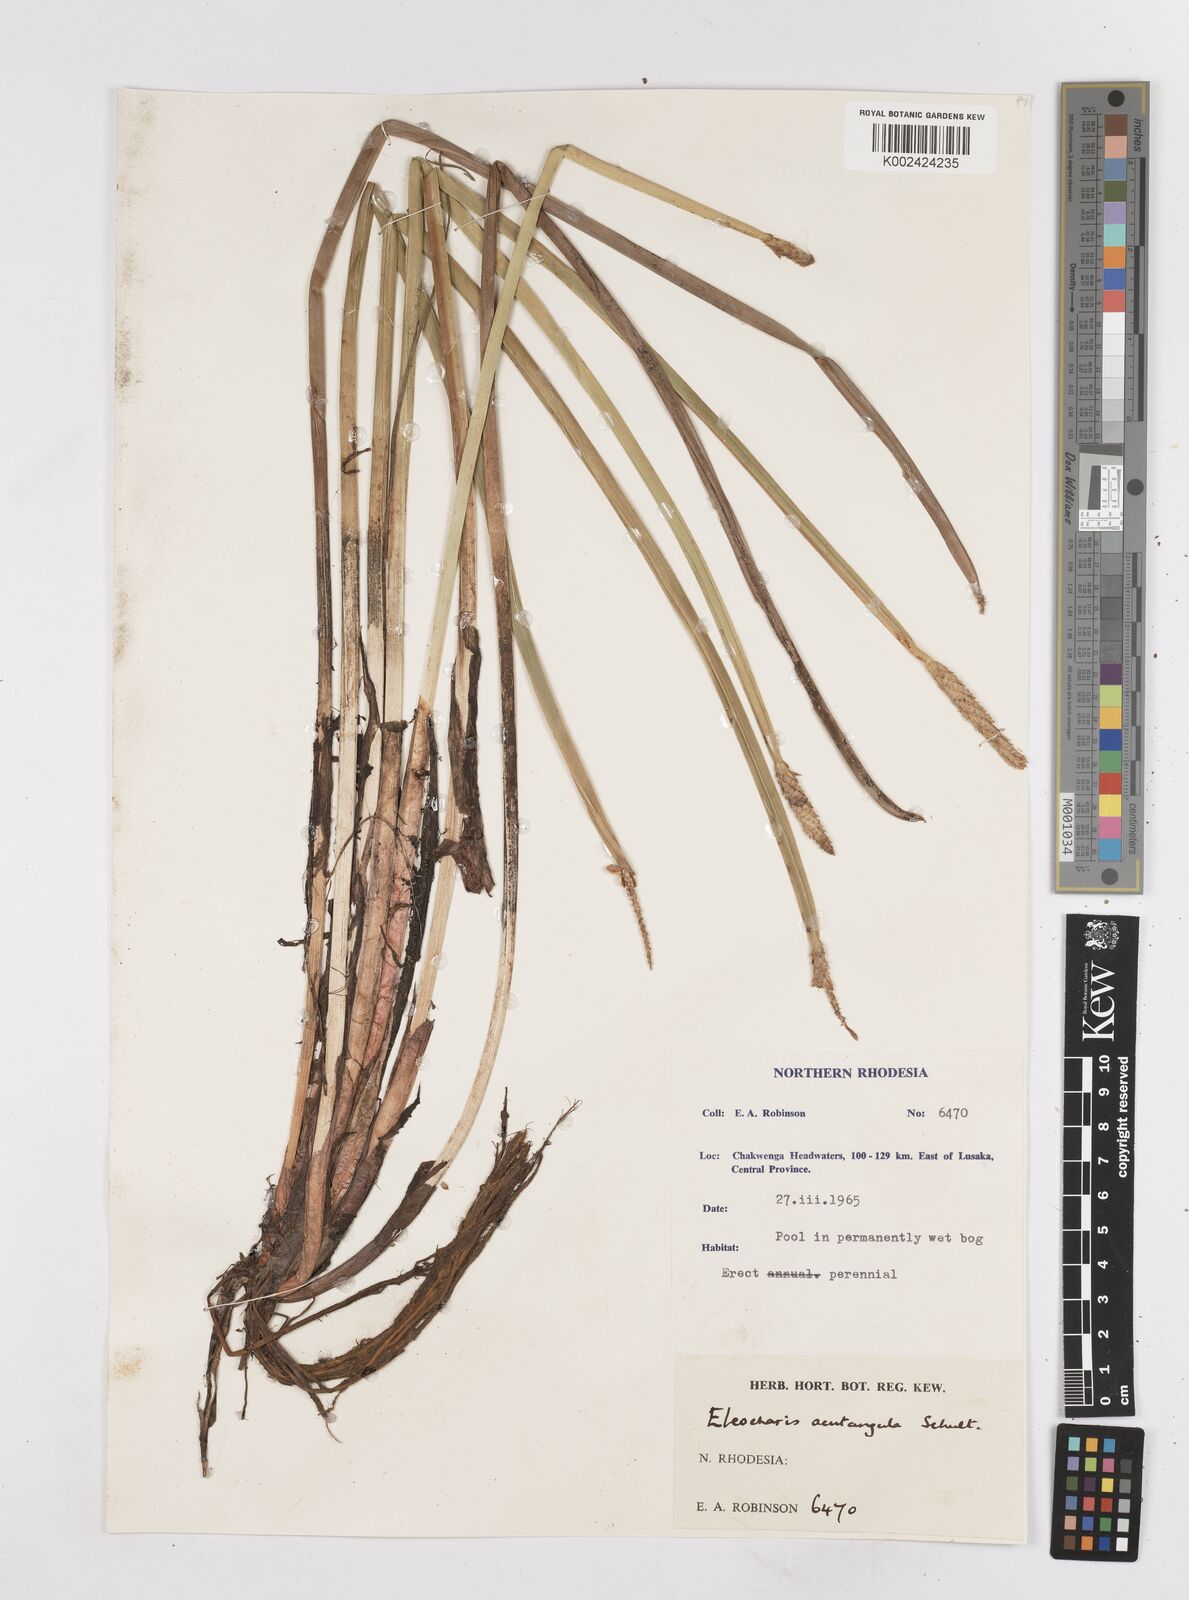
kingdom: Plantae
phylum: Tracheophyta
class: Liliopsida
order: Poales
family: Cyperaceae
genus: Eleocharis
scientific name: Eleocharis acutangula
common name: Acute spikerush
